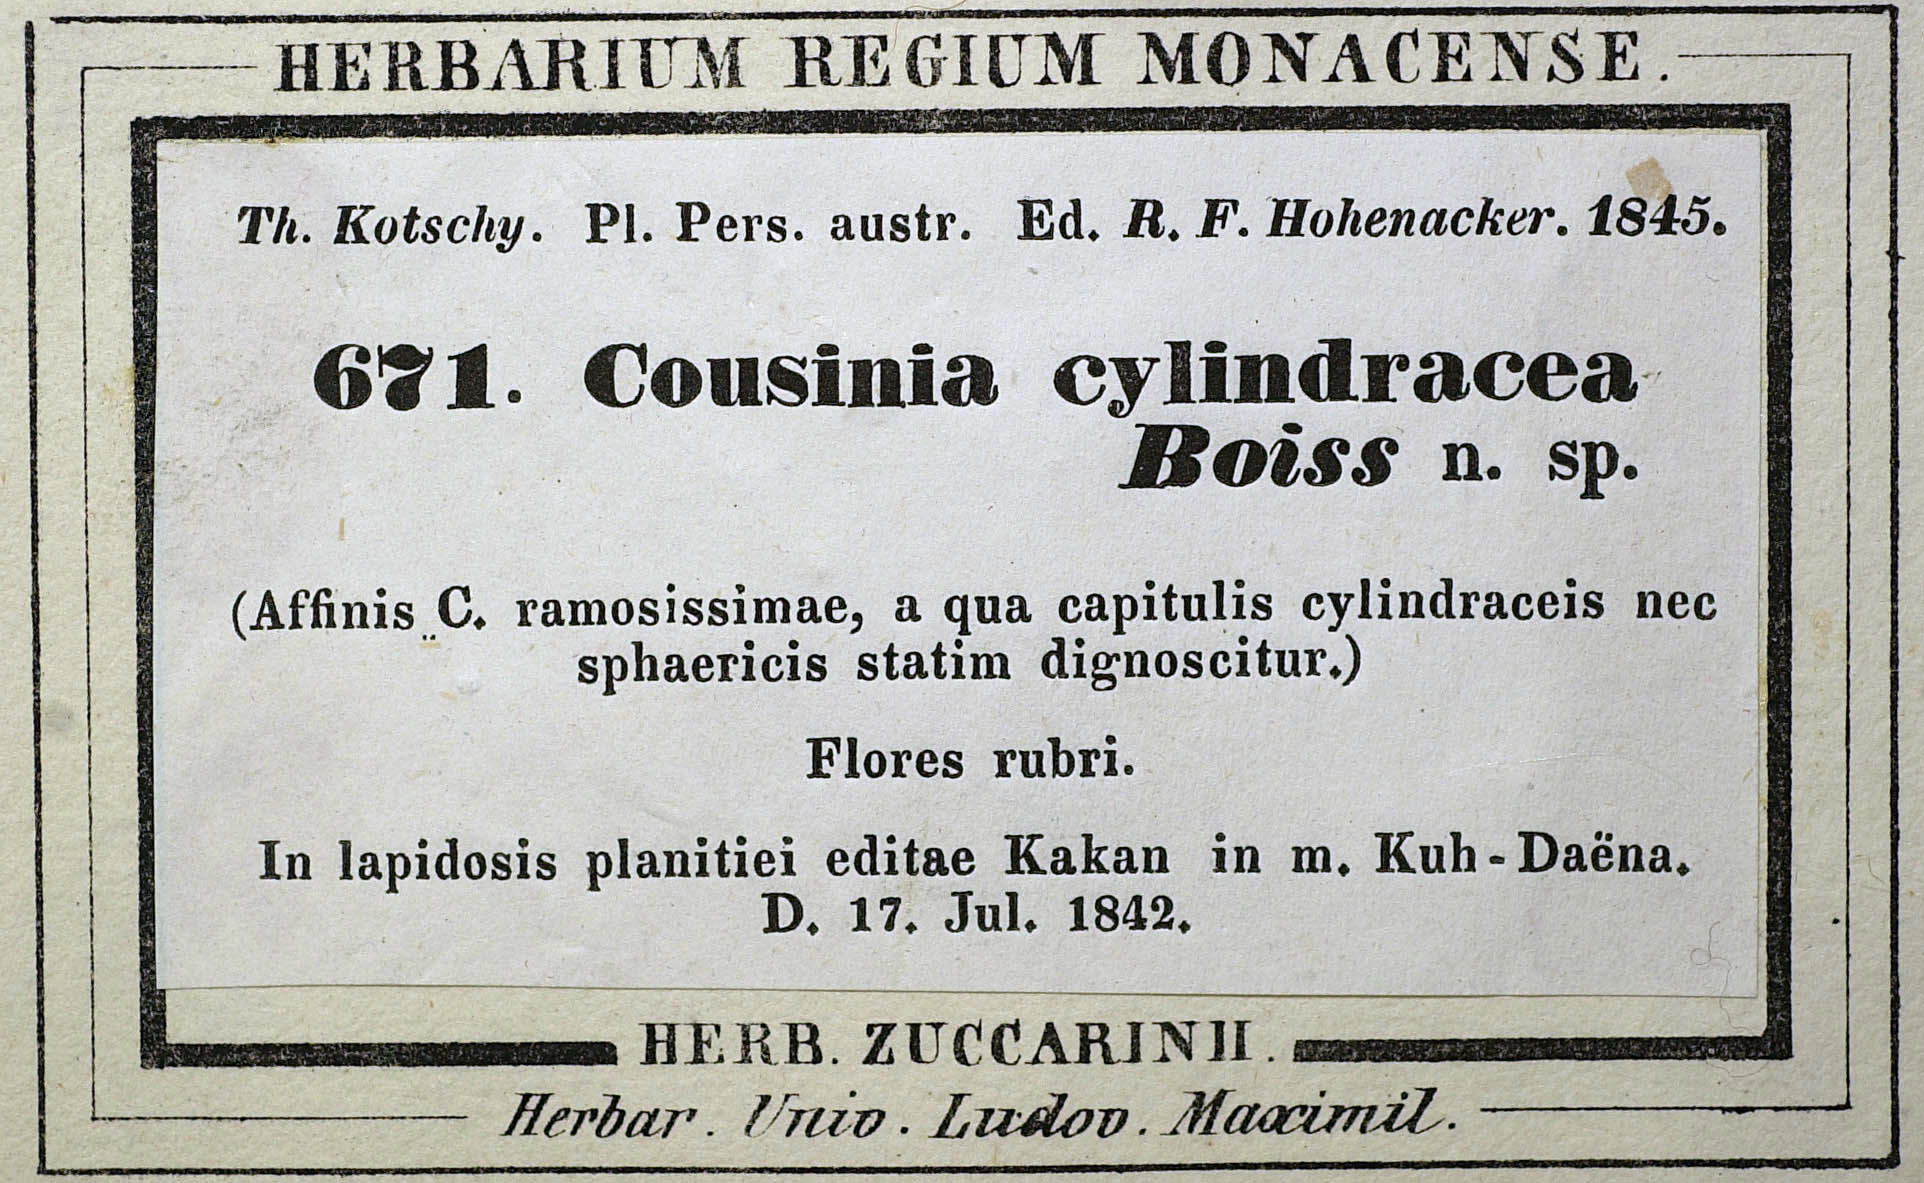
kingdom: Plantae
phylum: Tracheophyta
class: Magnoliopsida
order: Asterales
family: Asteraceae
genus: Cousinia
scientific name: Cousinia cylindracea
